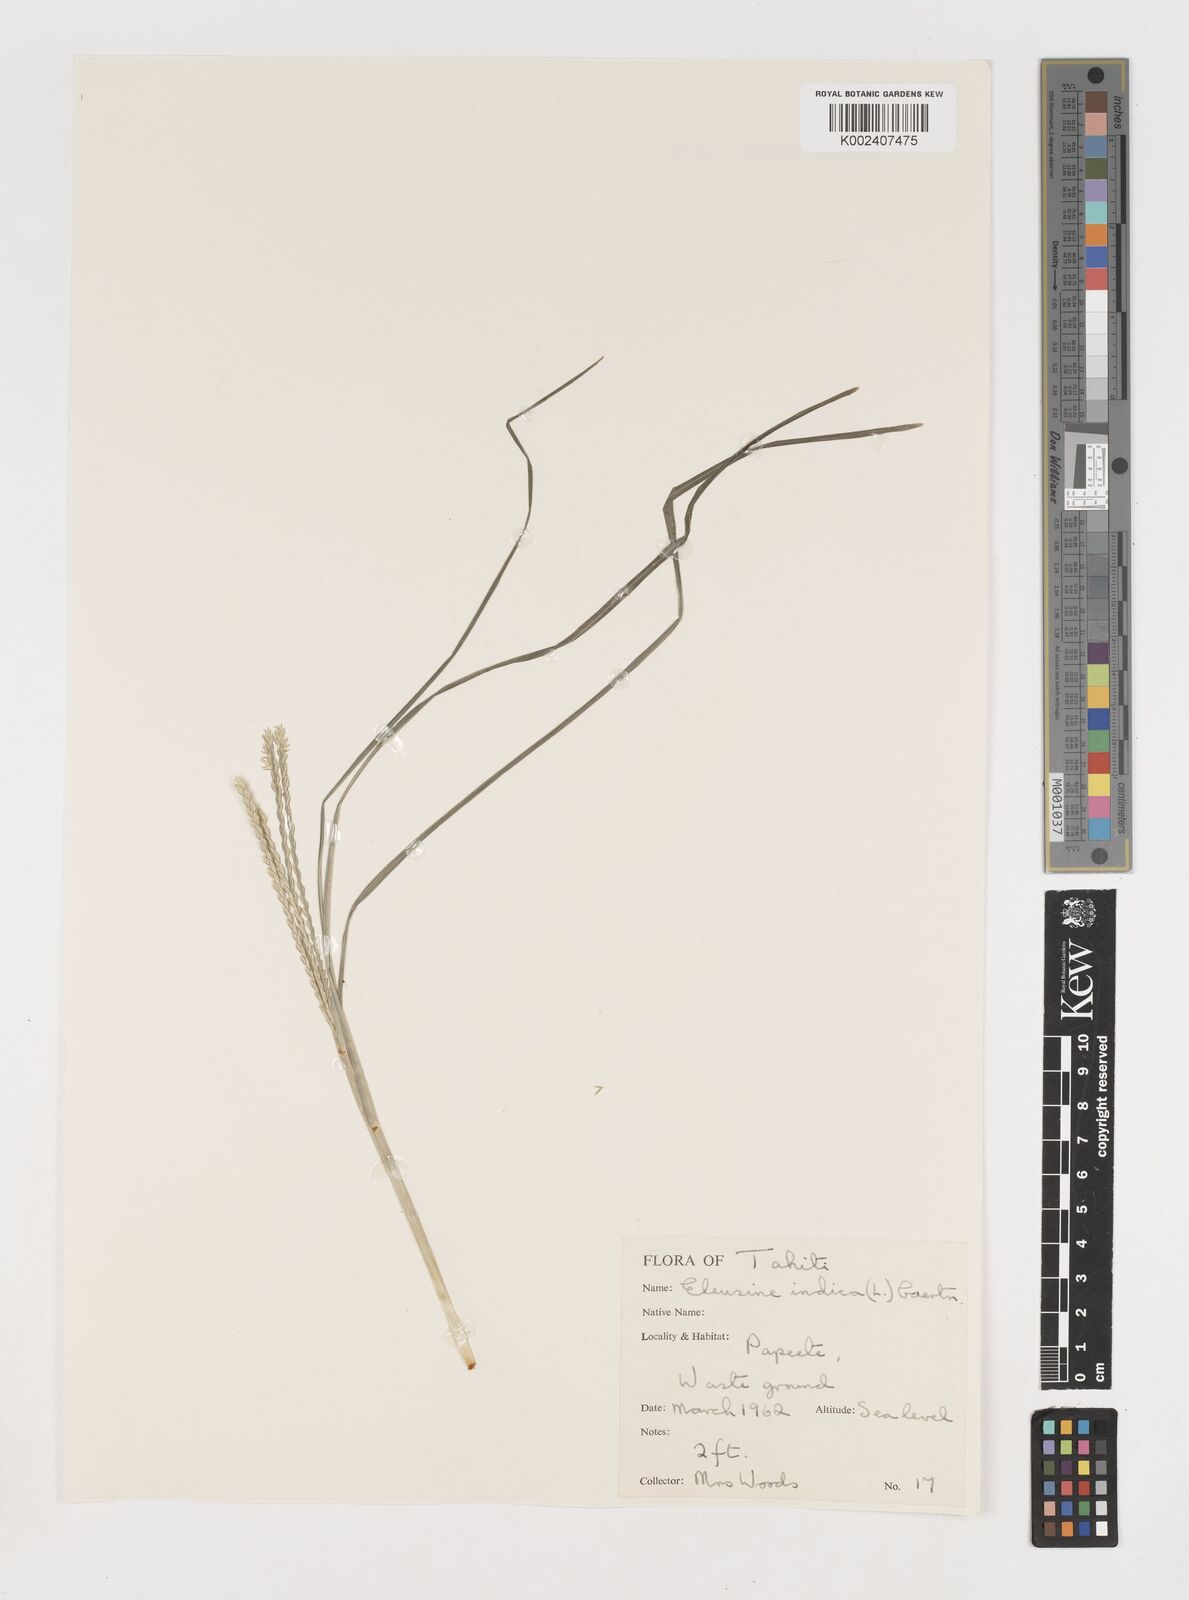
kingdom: Plantae
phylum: Tracheophyta
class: Liliopsida
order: Poales
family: Poaceae
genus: Eleusine
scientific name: Eleusine indica
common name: Yard-grass
